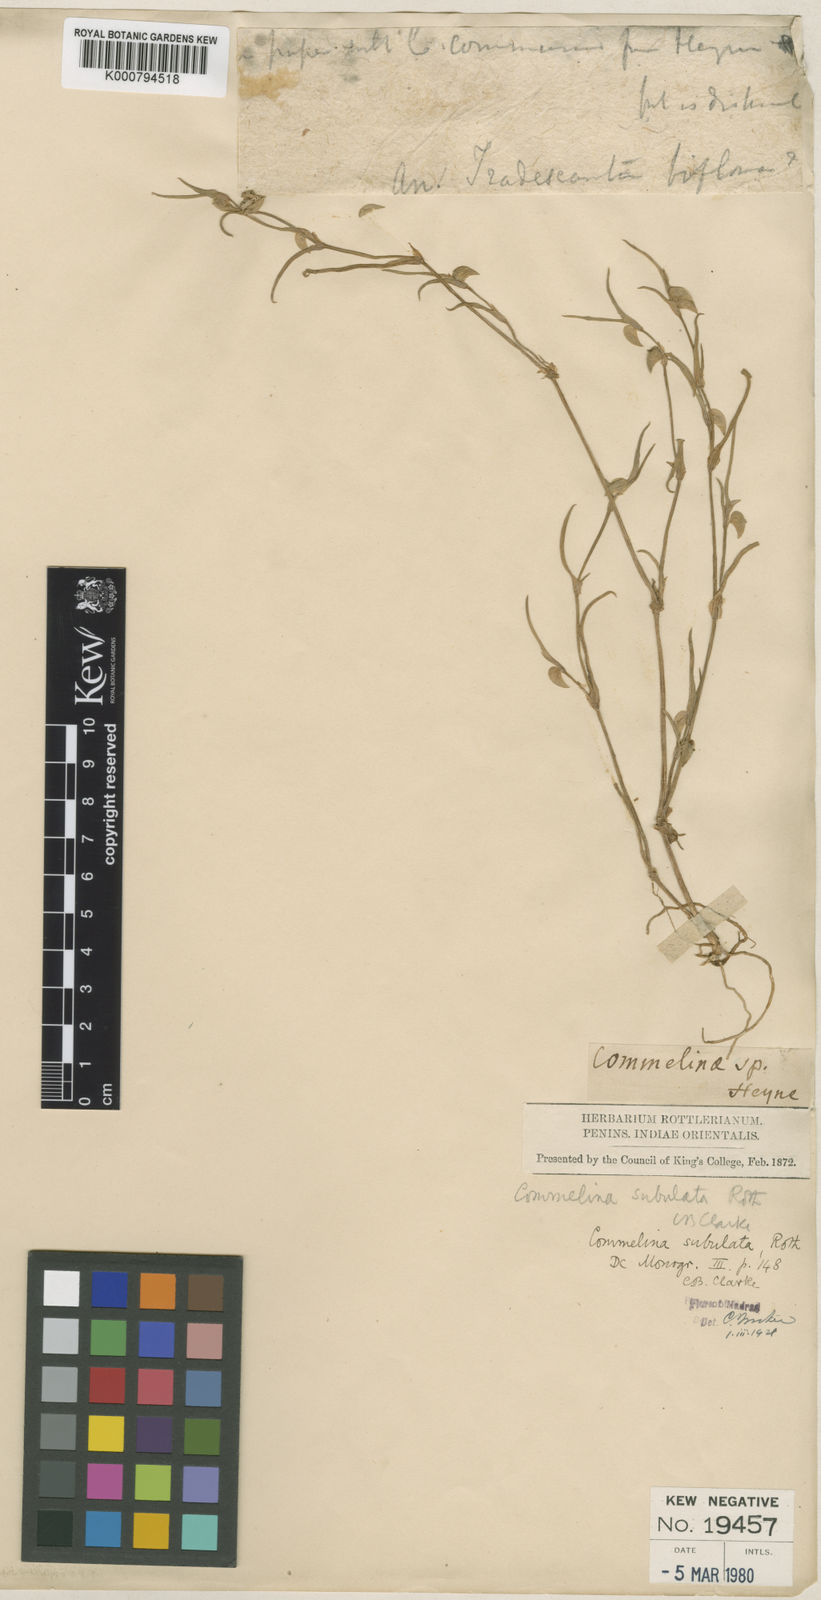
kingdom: Plantae
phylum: Tracheophyta
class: Liliopsida
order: Commelinales
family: Commelinaceae
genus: Commelina
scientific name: Commelina subulata
